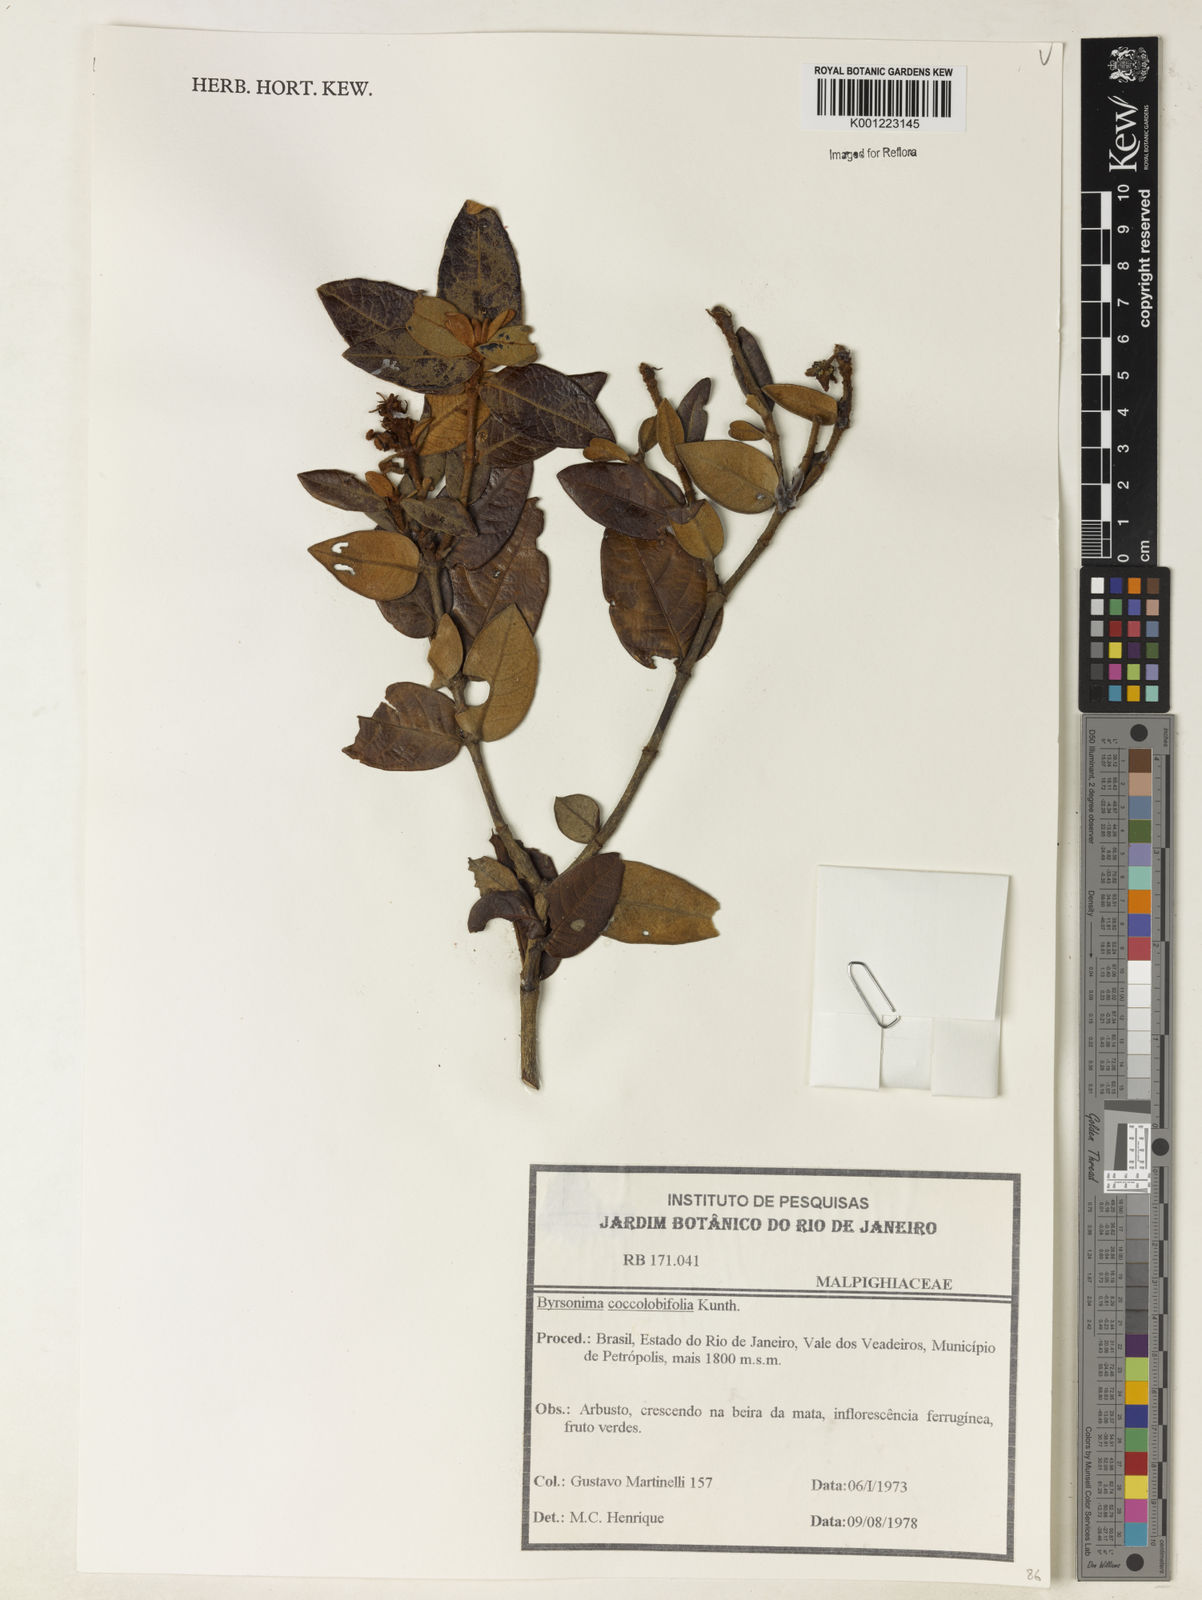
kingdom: Plantae
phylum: Tracheophyta
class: Magnoliopsida
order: Malpighiales
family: Malpighiaceae
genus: Byrsonima
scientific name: Byrsonima
